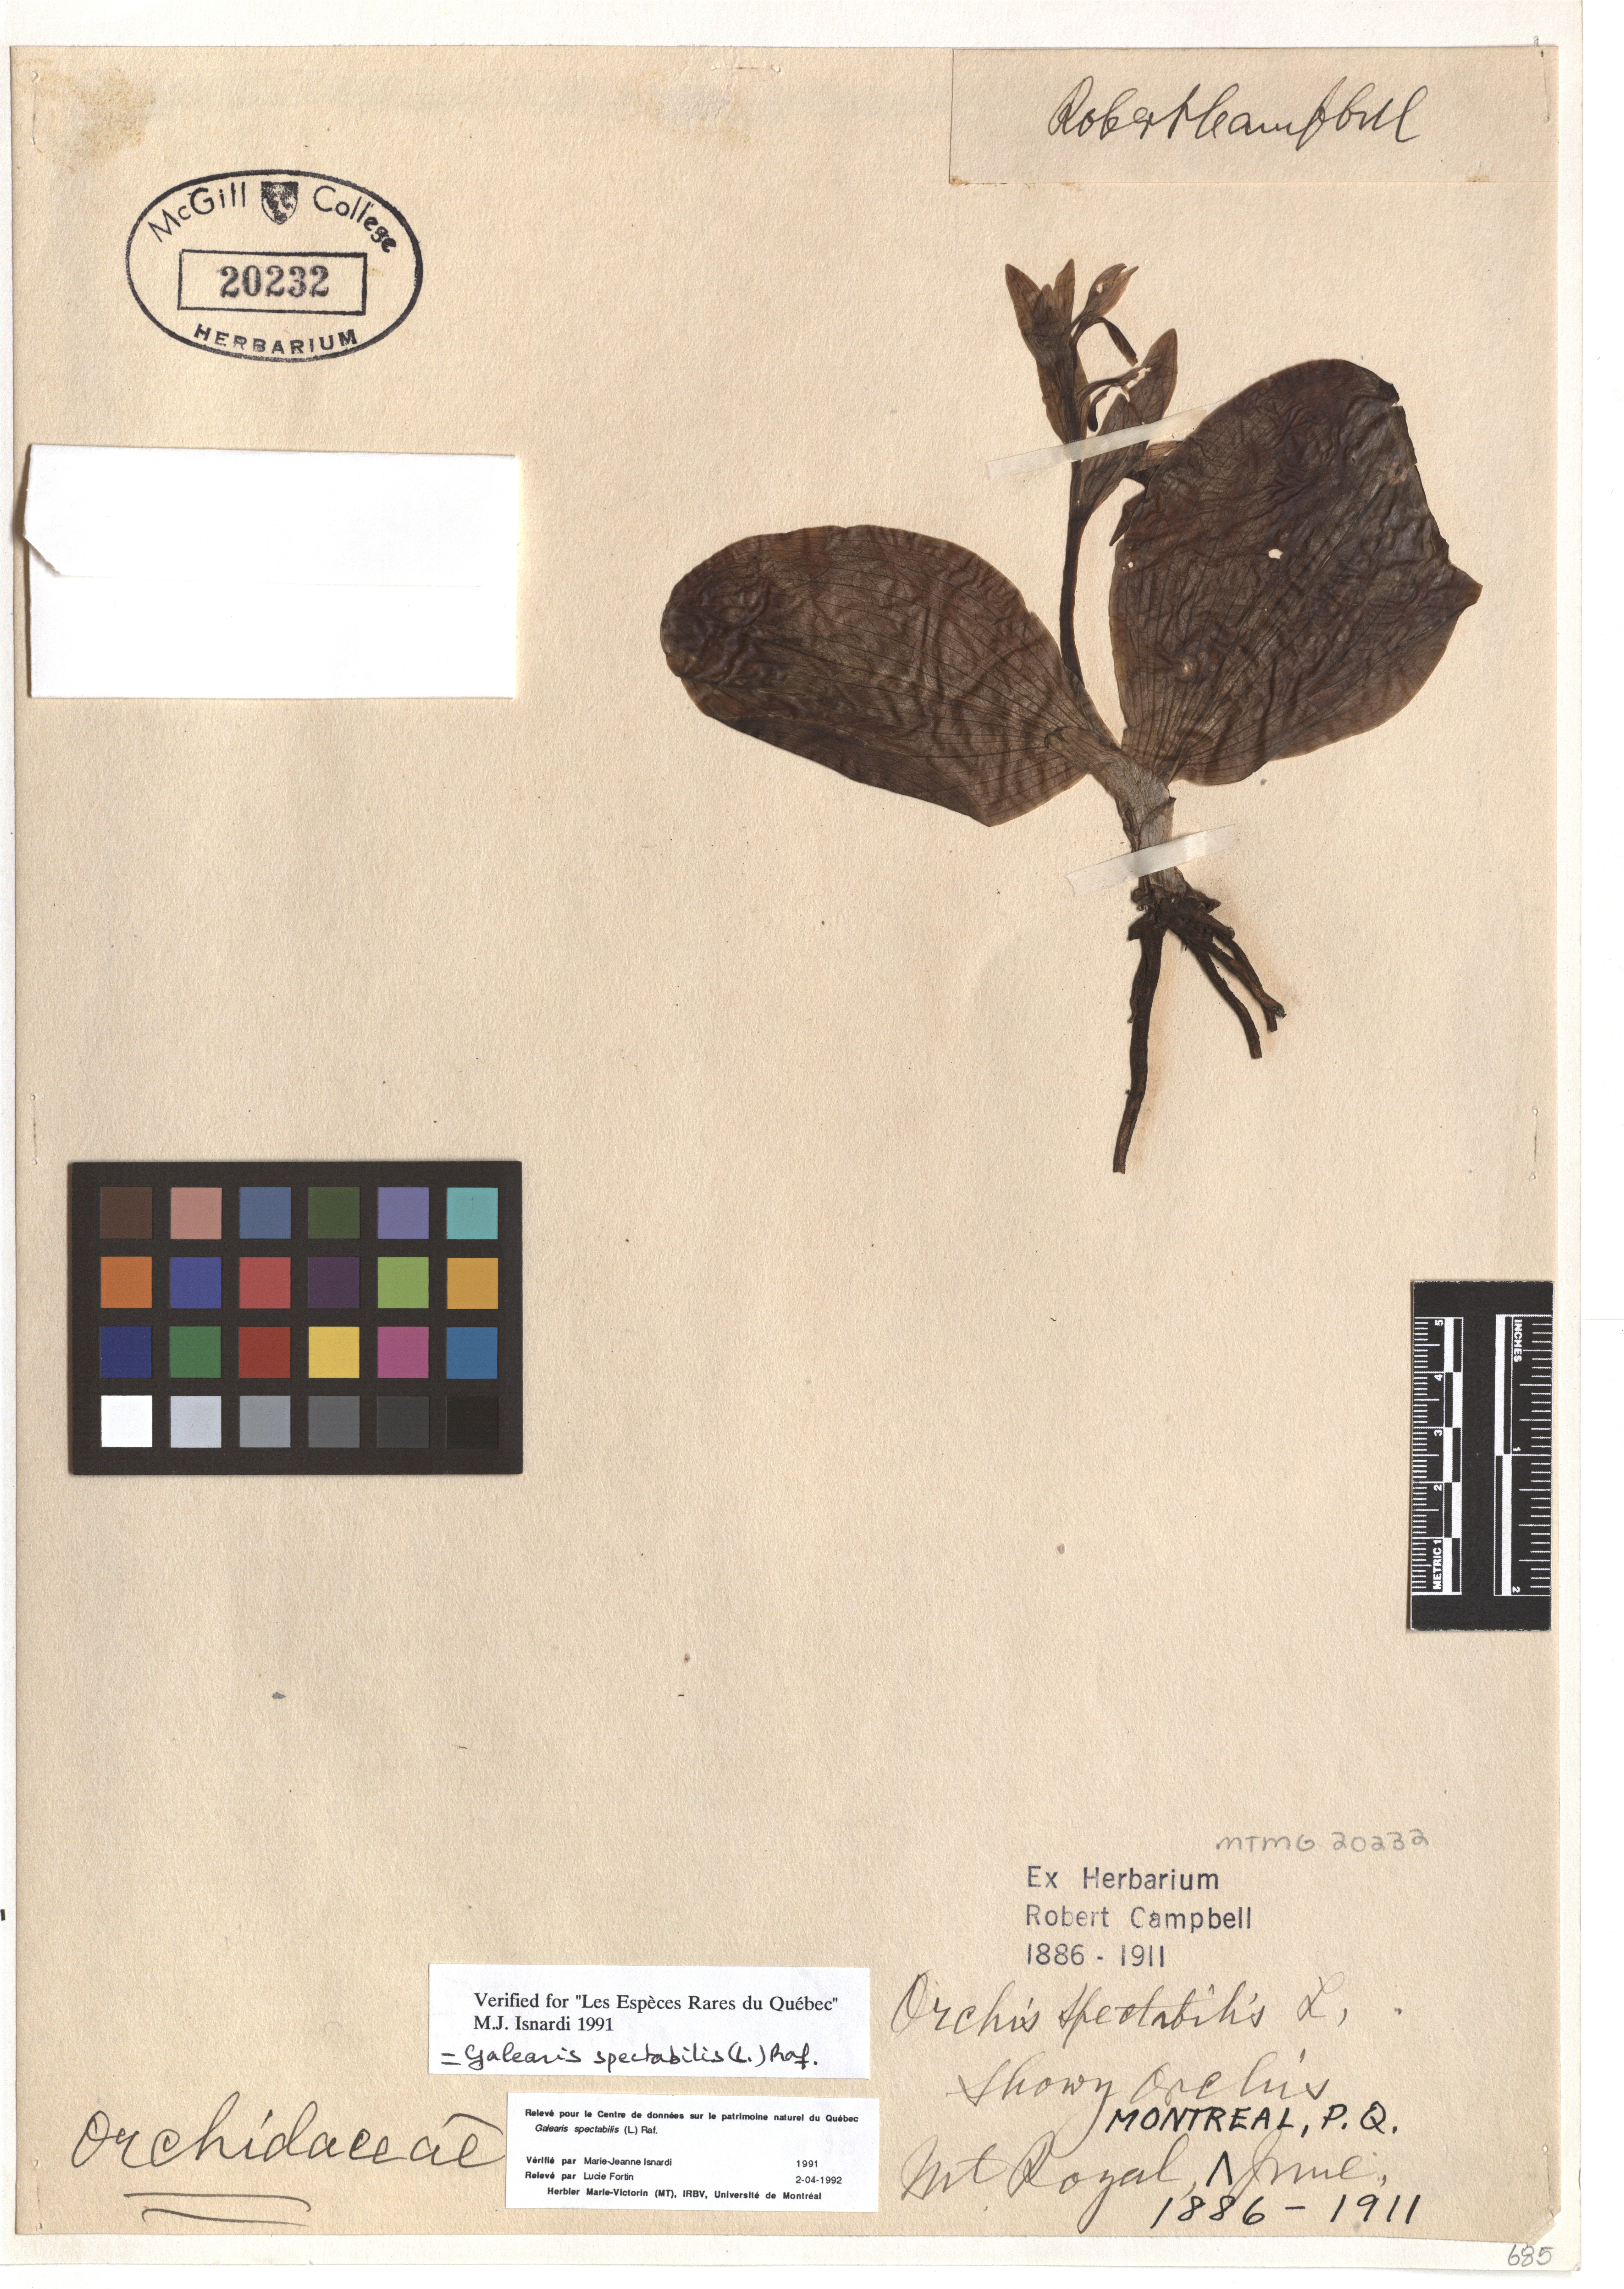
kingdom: Plantae
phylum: Tracheophyta
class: Liliopsida
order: Asparagales
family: Orchidaceae
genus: Galearis
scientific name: Galearis spectabilis
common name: Purple-hooded orchis
